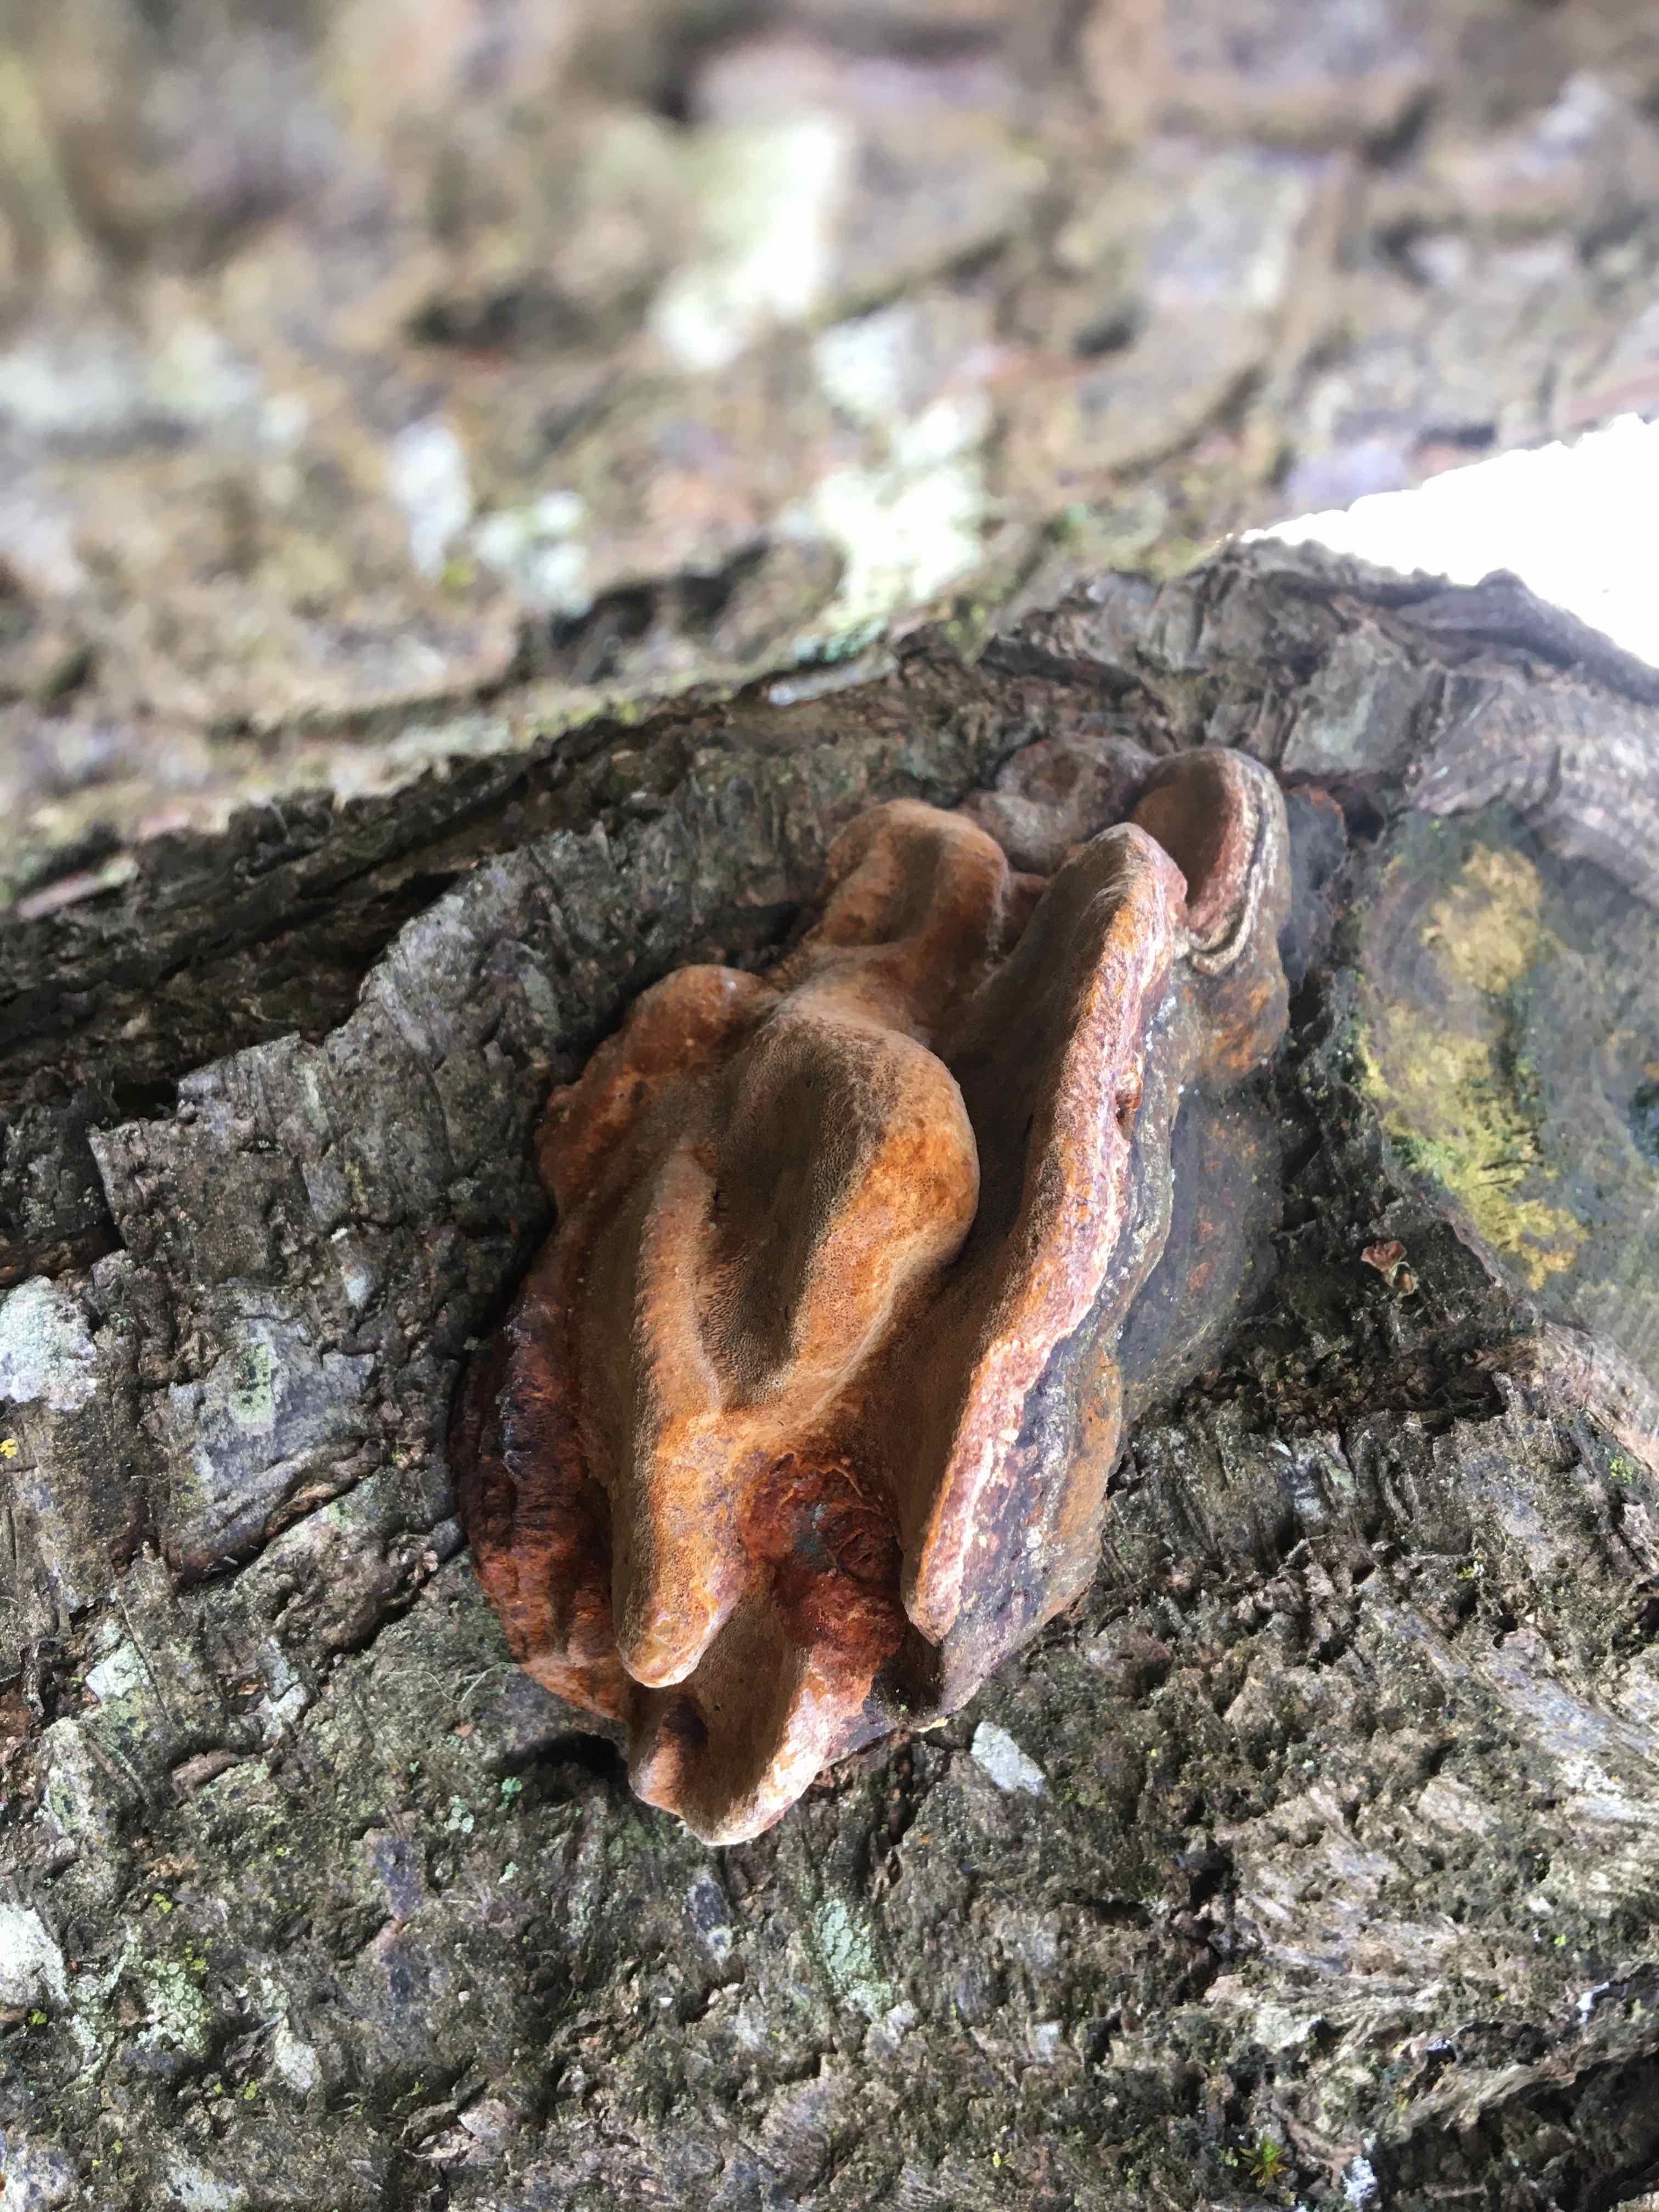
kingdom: Fungi
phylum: Basidiomycota
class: Agaricomycetes
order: Hymenochaetales
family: Hymenochaetaceae
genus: Phellinus
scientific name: Phellinus pomaceus
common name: blomme-ildporesvamp
